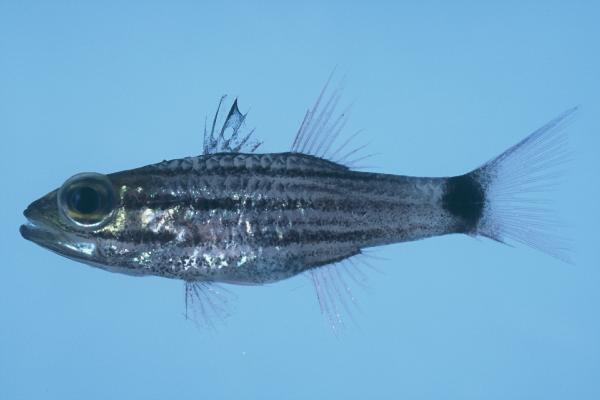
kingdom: Animalia
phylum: Chordata
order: Perciformes
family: Apogonidae
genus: Cheilodipterus
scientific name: Cheilodipterus macrodon
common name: Eight-lined cardinalfish
